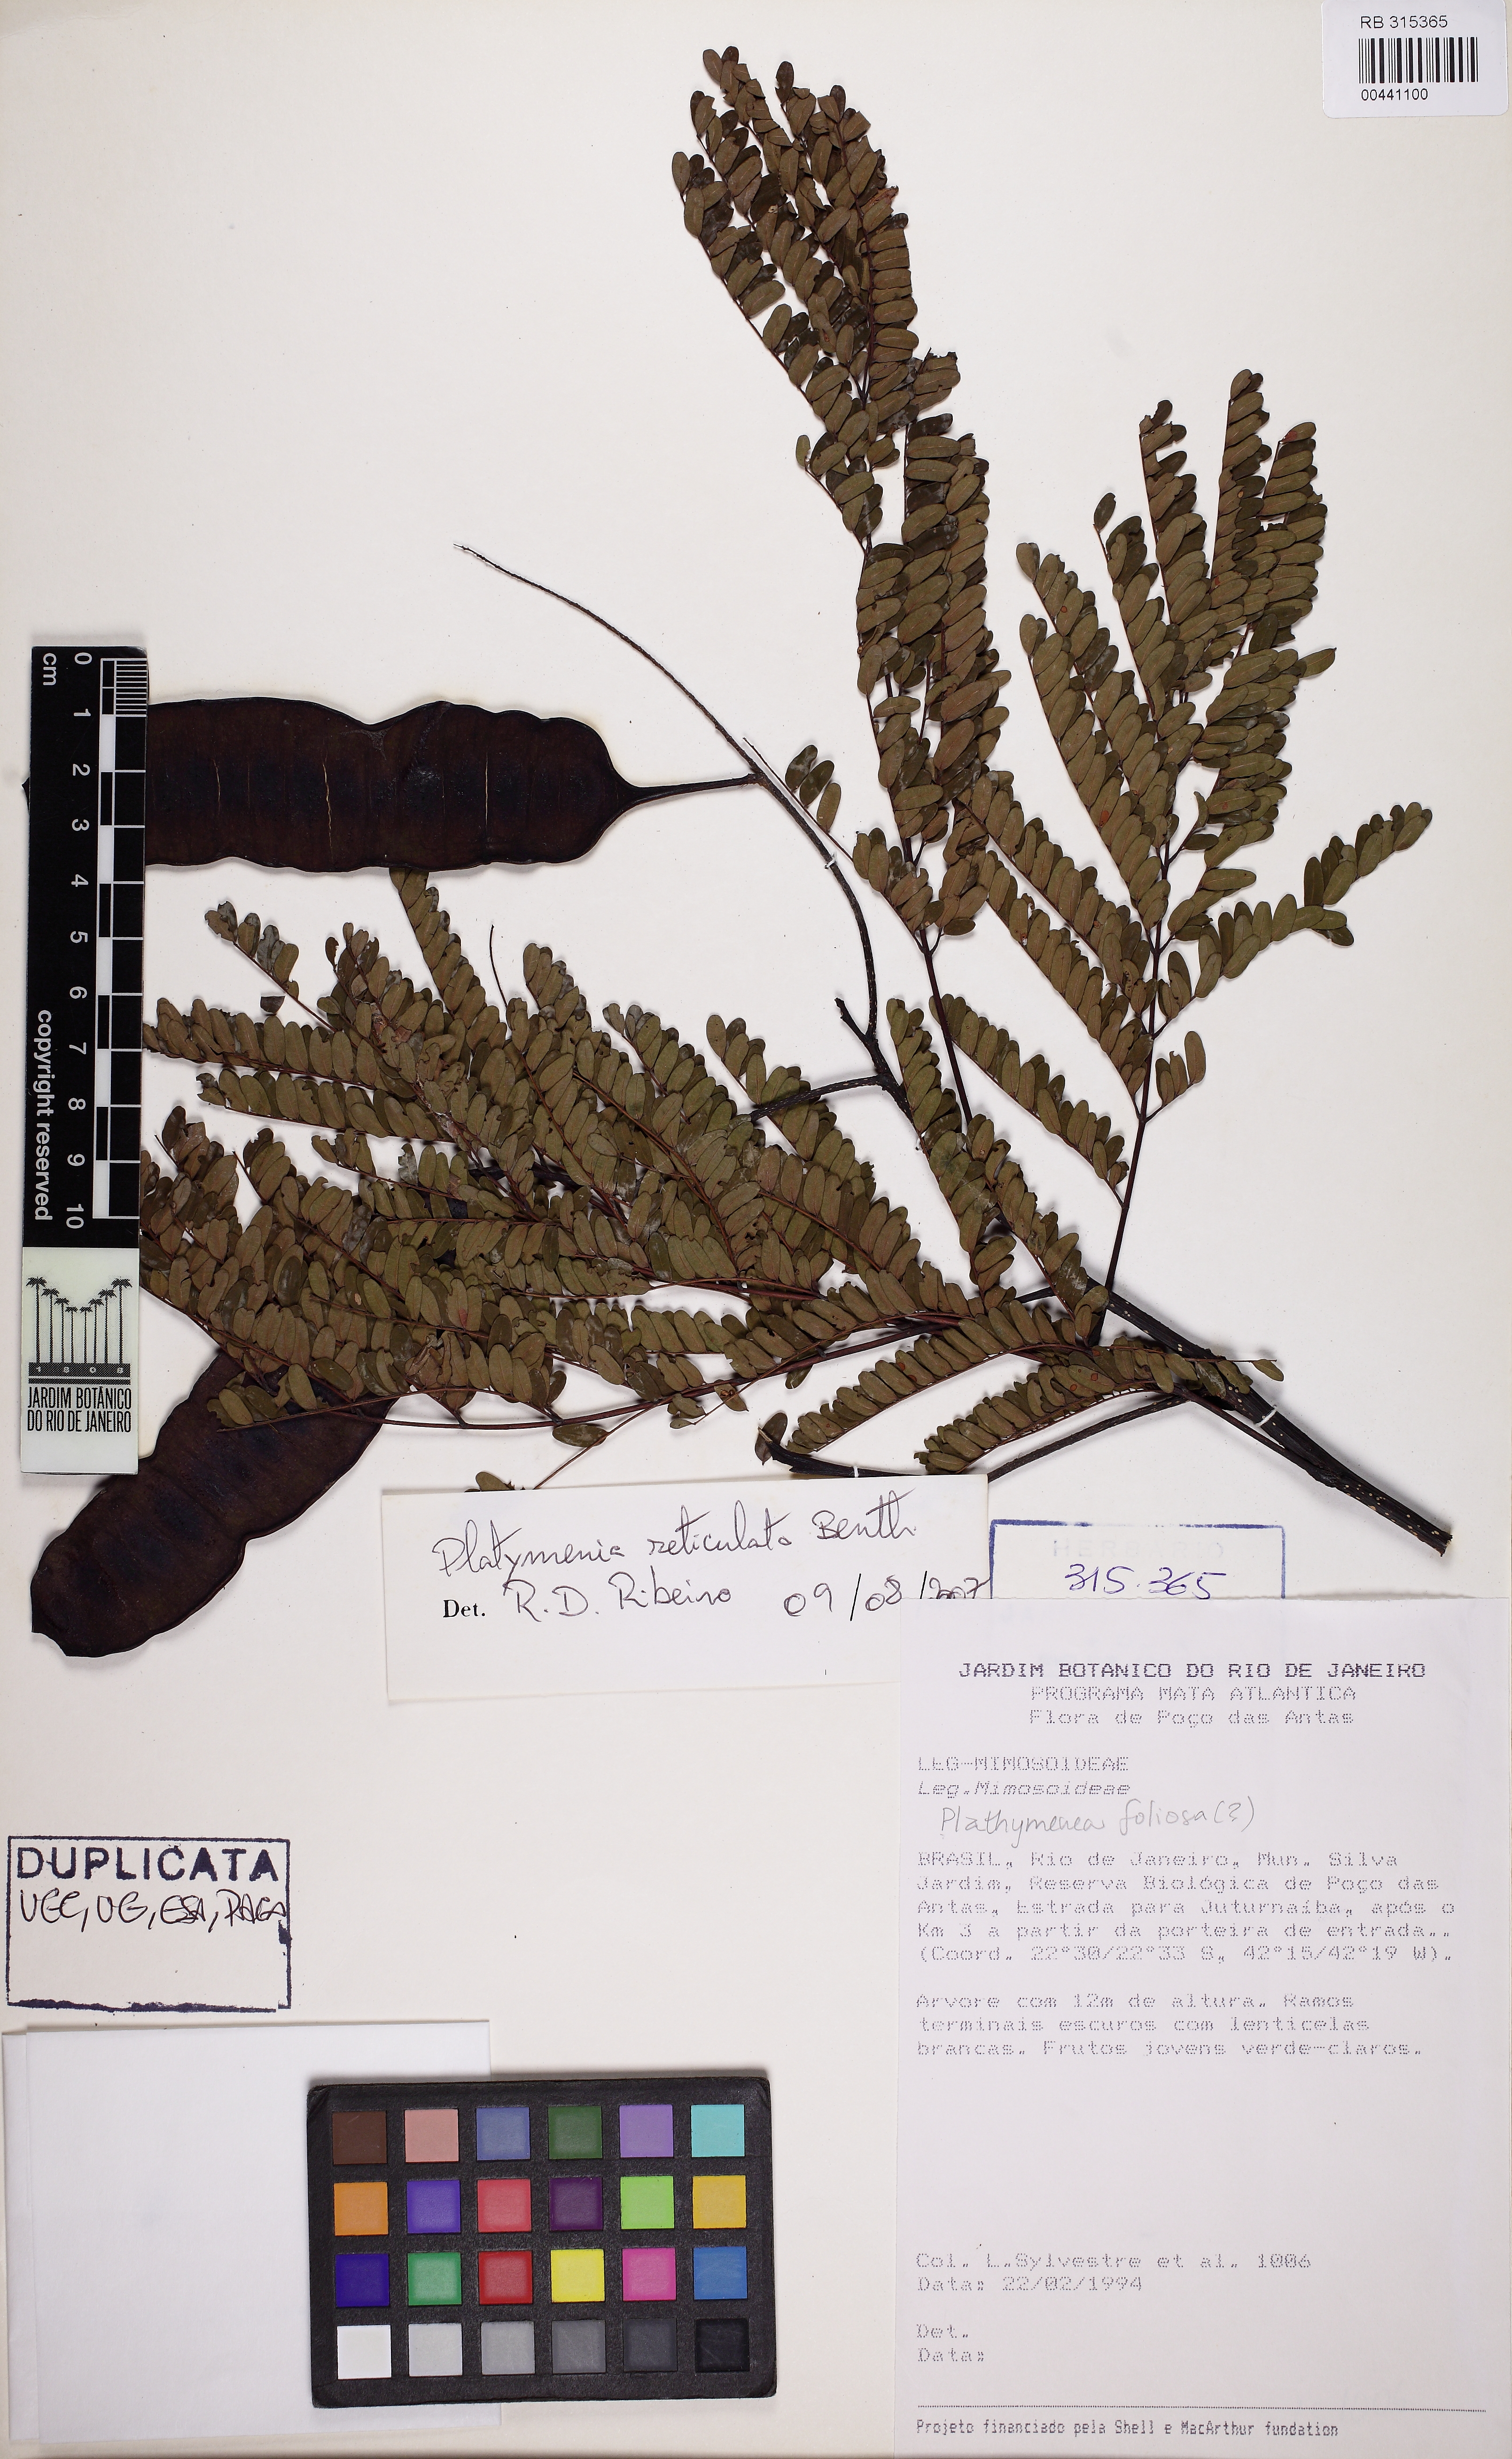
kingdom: Plantae
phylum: Tracheophyta
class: Magnoliopsida
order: Fabales
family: Fabaceae
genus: Plathymenia
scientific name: Plathymenia reticulata
